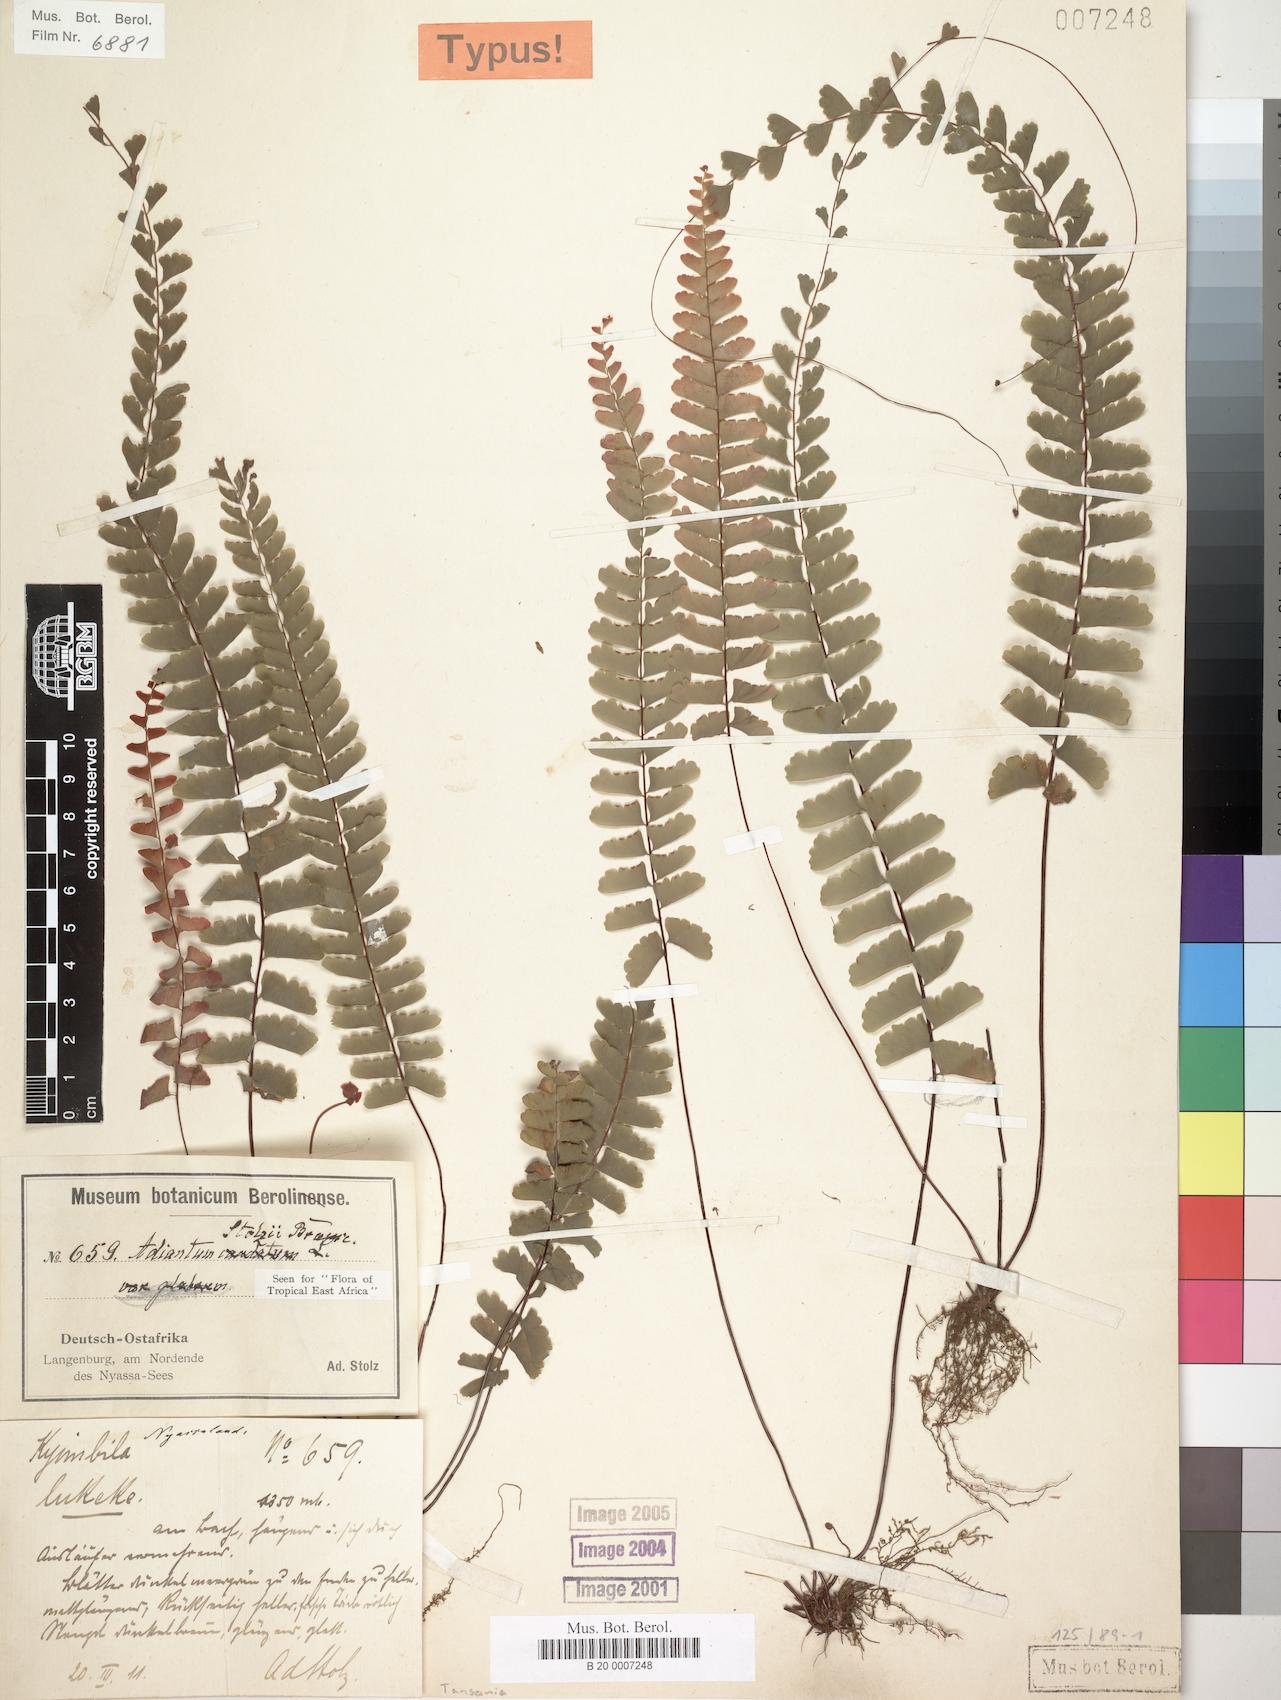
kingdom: Plantae
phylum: Tracheophyta
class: Polypodiopsida
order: Polypodiales
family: Pteridaceae
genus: Adiantum
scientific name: Adiantum stolzii
